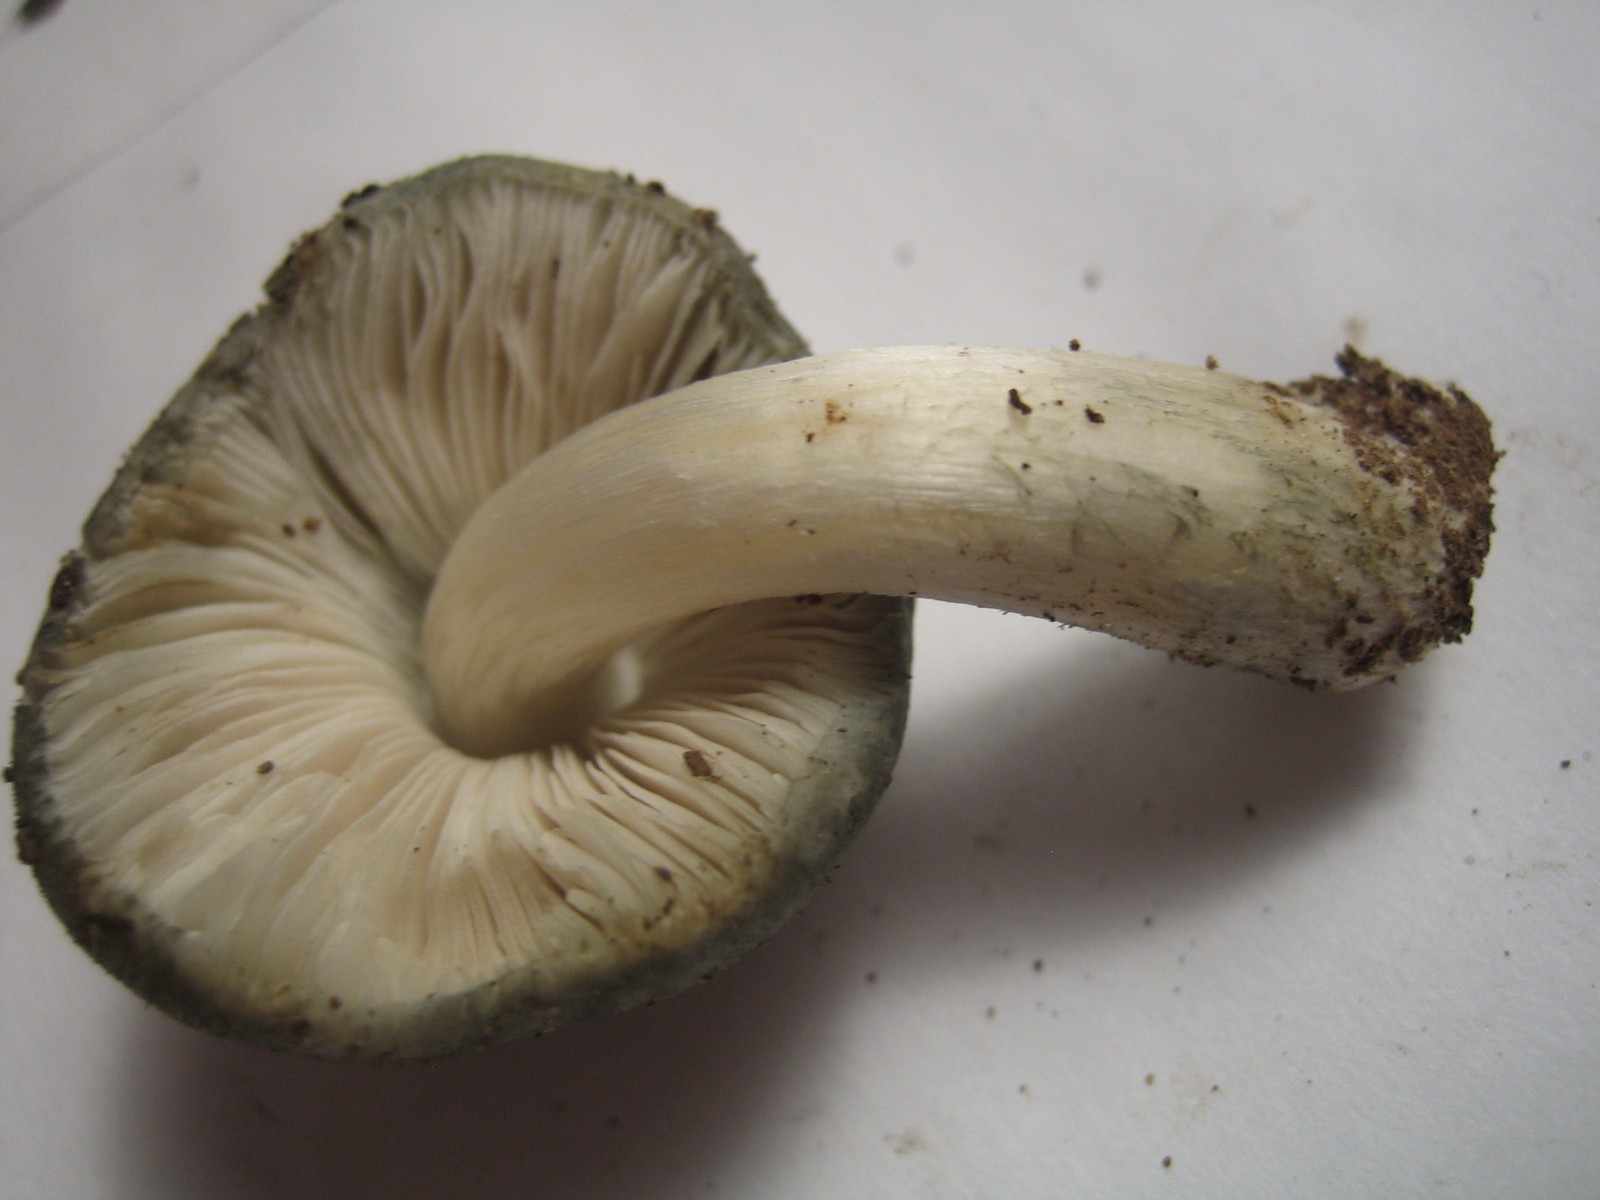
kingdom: Fungi
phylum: Basidiomycota
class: Agaricomycetes
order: Agaricales
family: Pluteaceae
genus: Pluteus
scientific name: Pluteus salicinus
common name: stiv skærmhat
